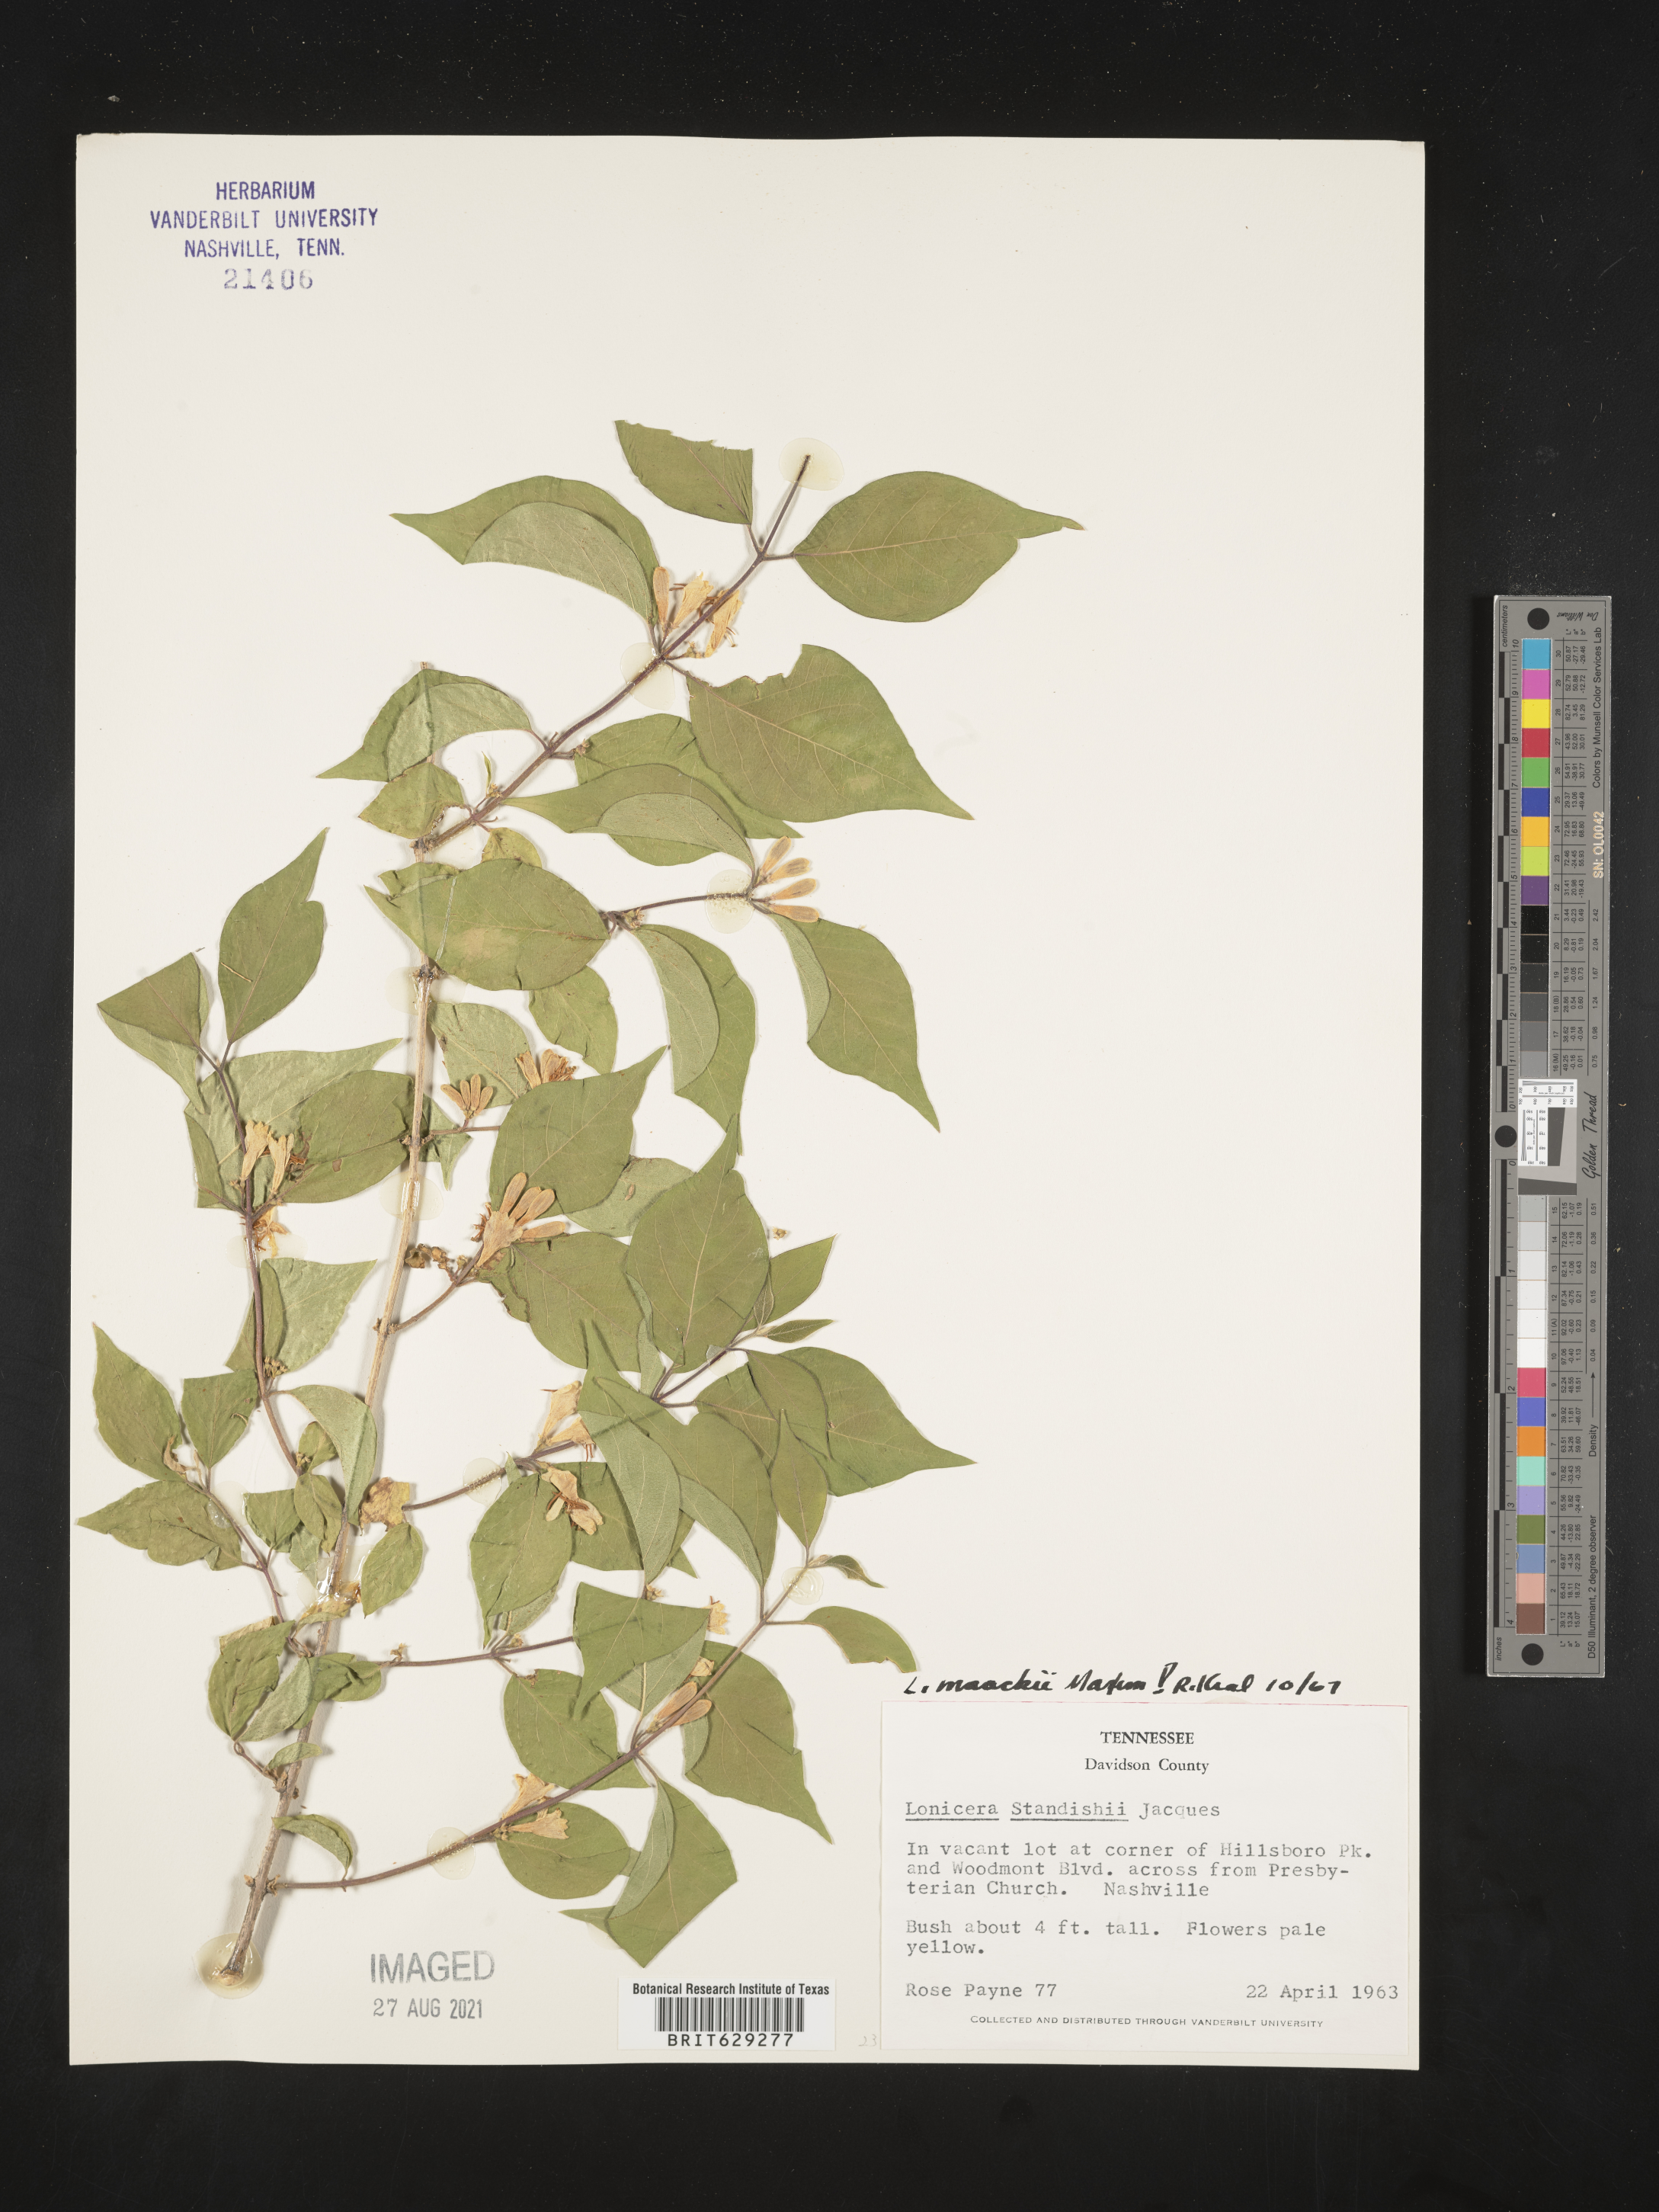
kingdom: Plantae
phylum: Tracheophyta
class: Magnoliopsida
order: Dipsacales
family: Caprifoliaceae
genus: Lonicera
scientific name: Lonicera maackii
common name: Amur honeysuckle
